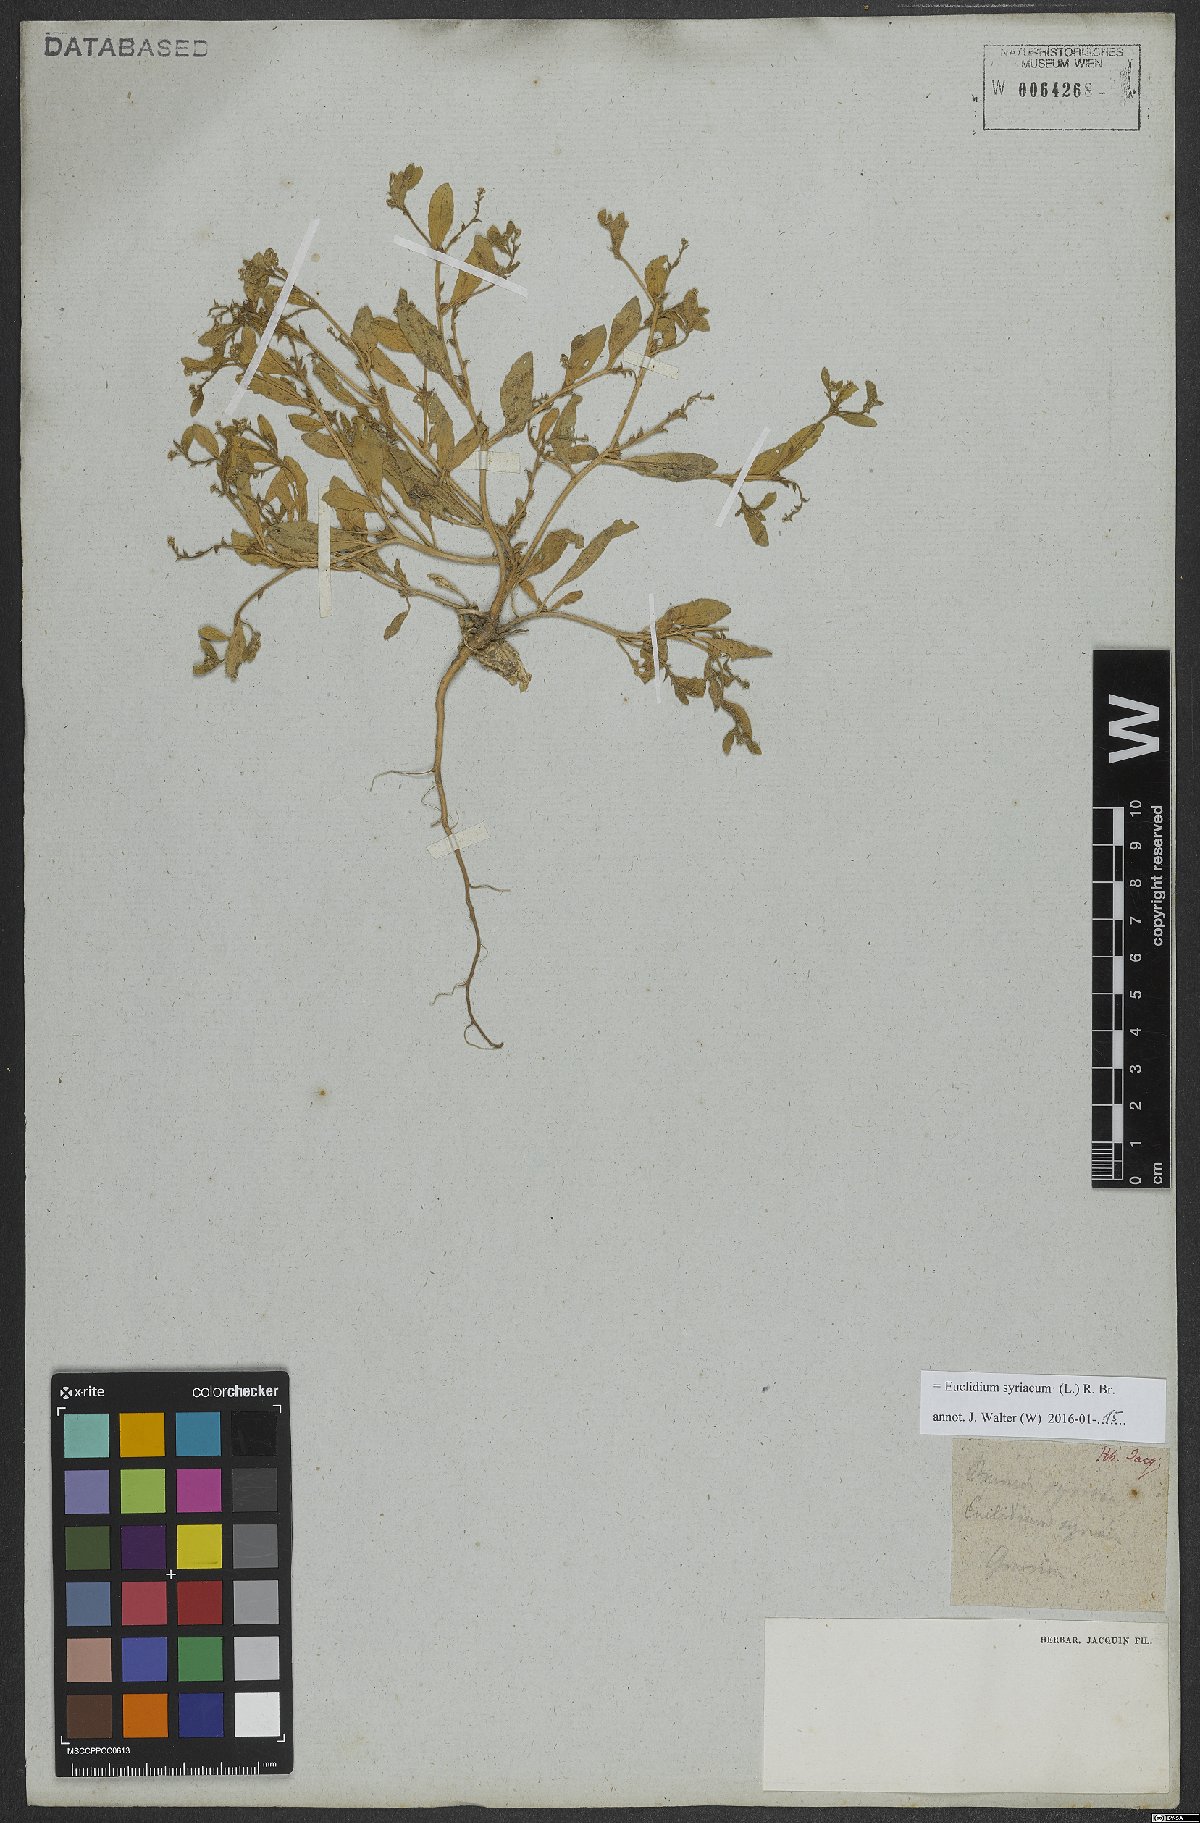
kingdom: Plantae
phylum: Tracheophyta
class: Magnoliopsida
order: Brassicales
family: Brassicaceae
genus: Euclidium
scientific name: Euclidium syriacum
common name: Syrian mustard
